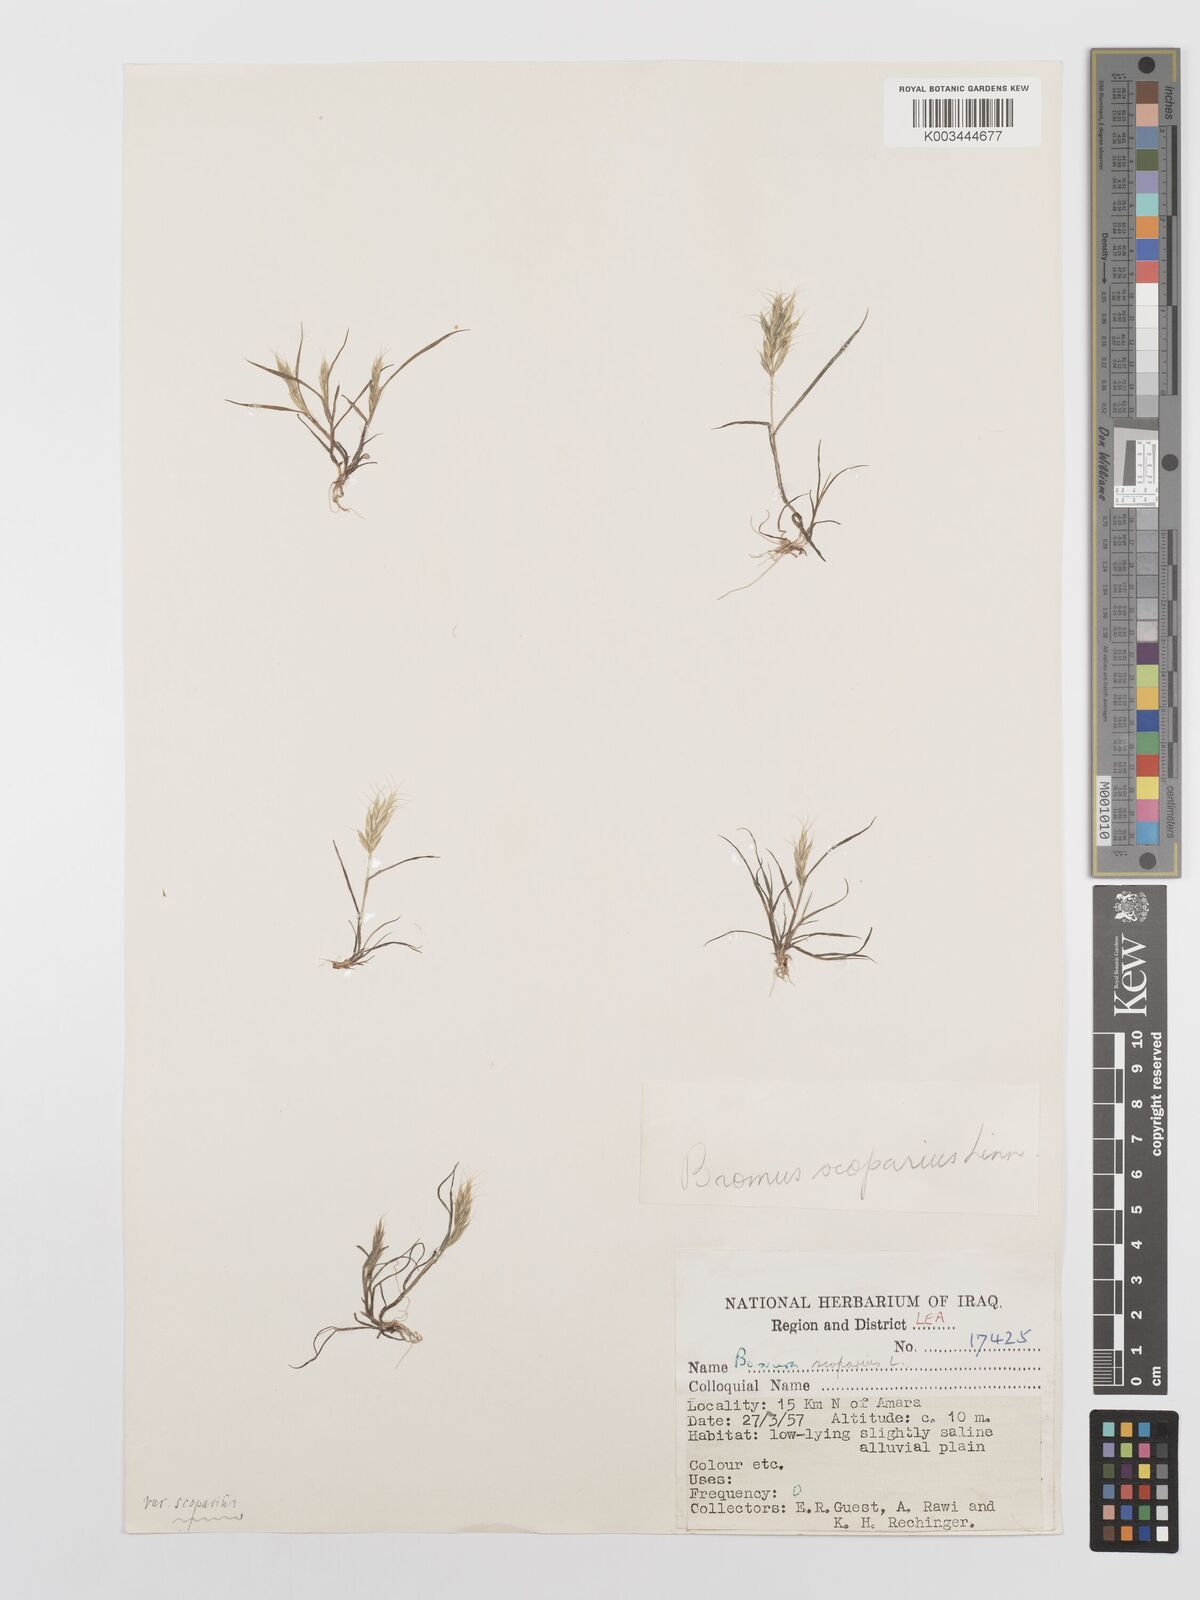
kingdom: Plantae
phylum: Tracheophyta
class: Liliopsida
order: Poales
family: Poaceae
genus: Bromus
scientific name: Bromus scoparius
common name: Broom brome
